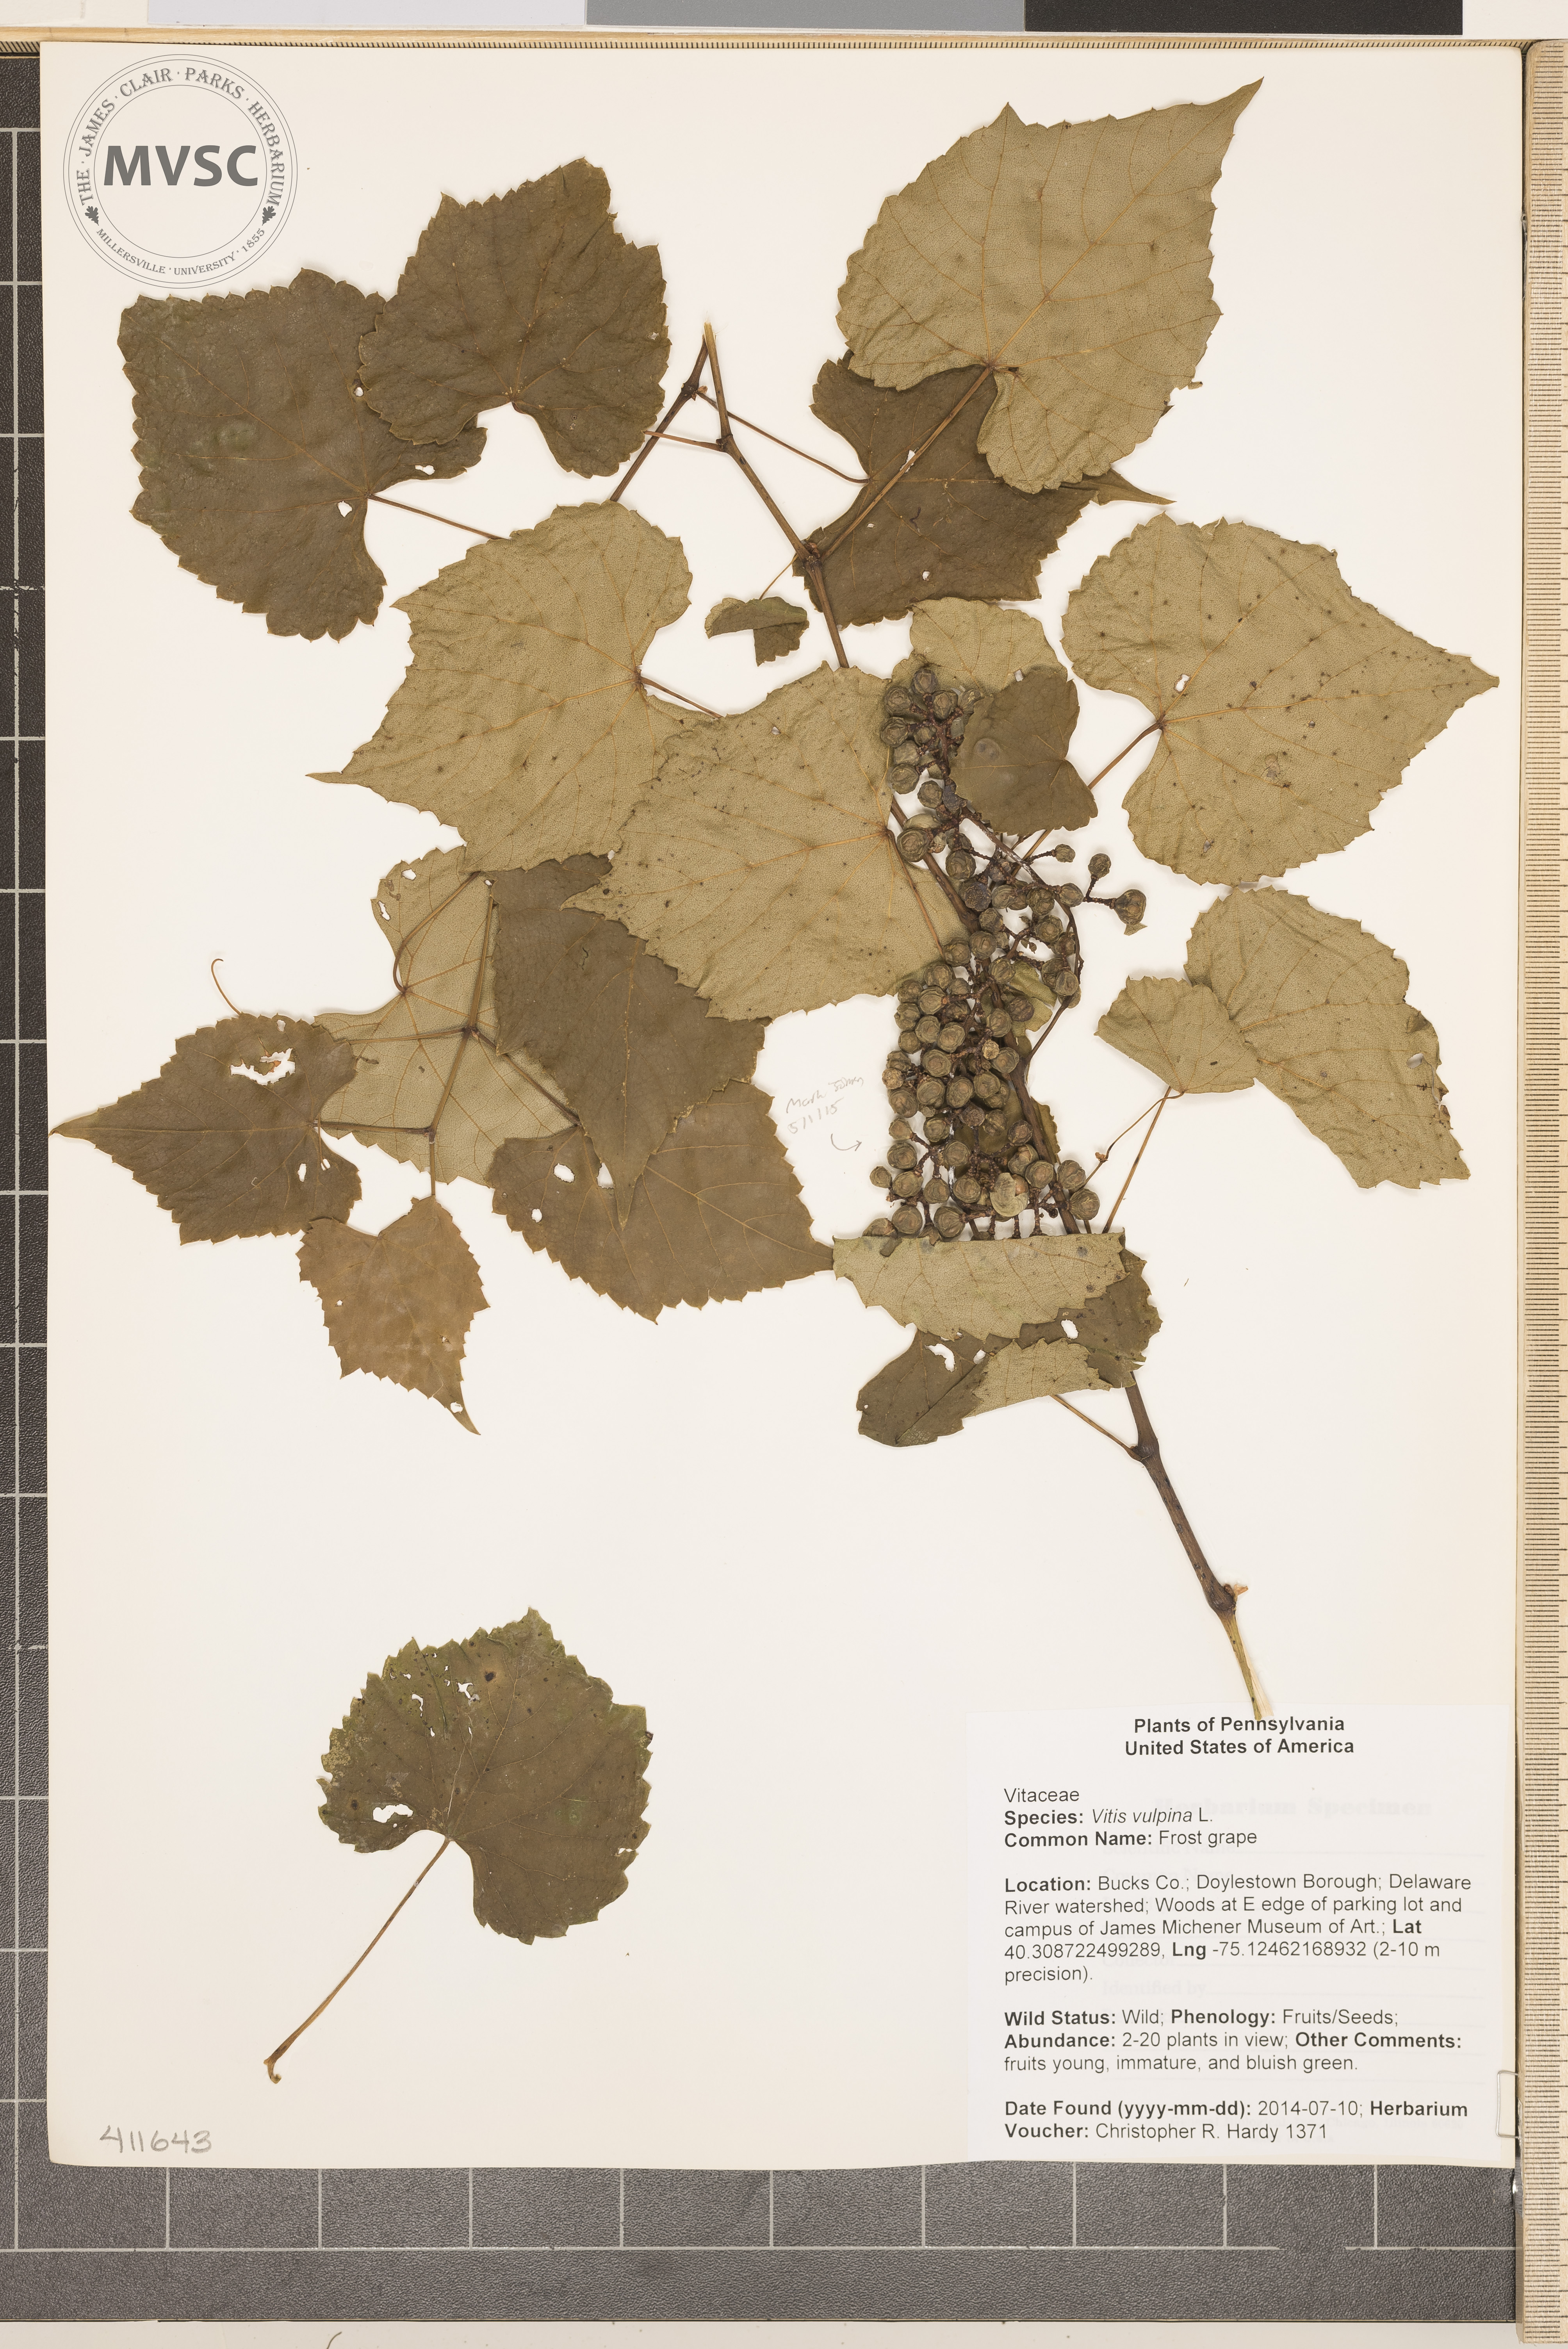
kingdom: Plantae
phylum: Tracheophyta
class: Magnoliopsida
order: Vitales
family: Vitaceae
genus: Vitis
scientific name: Vitis vulpina
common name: Frost grape
